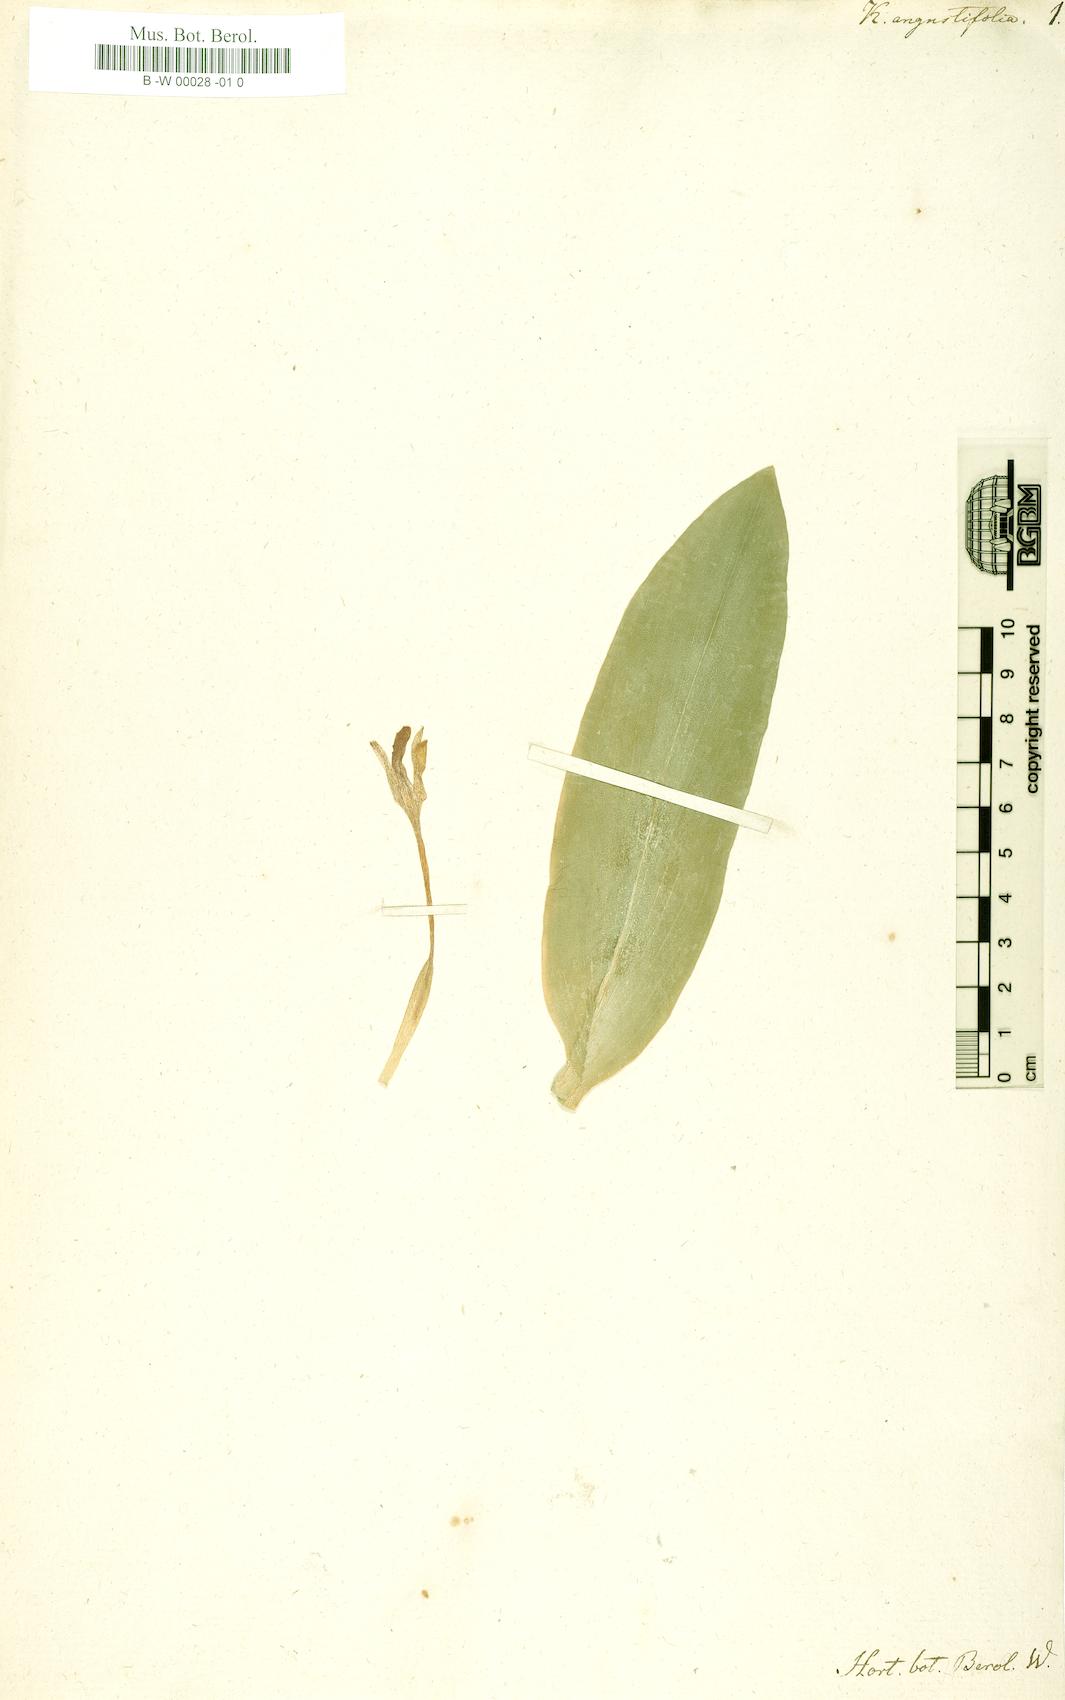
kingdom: Plantae
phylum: Tracheophyta
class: Liliopsida
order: Zingiberales
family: Zingiberaceae
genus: Kaempferia
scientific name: Kaempferia angustifolia
